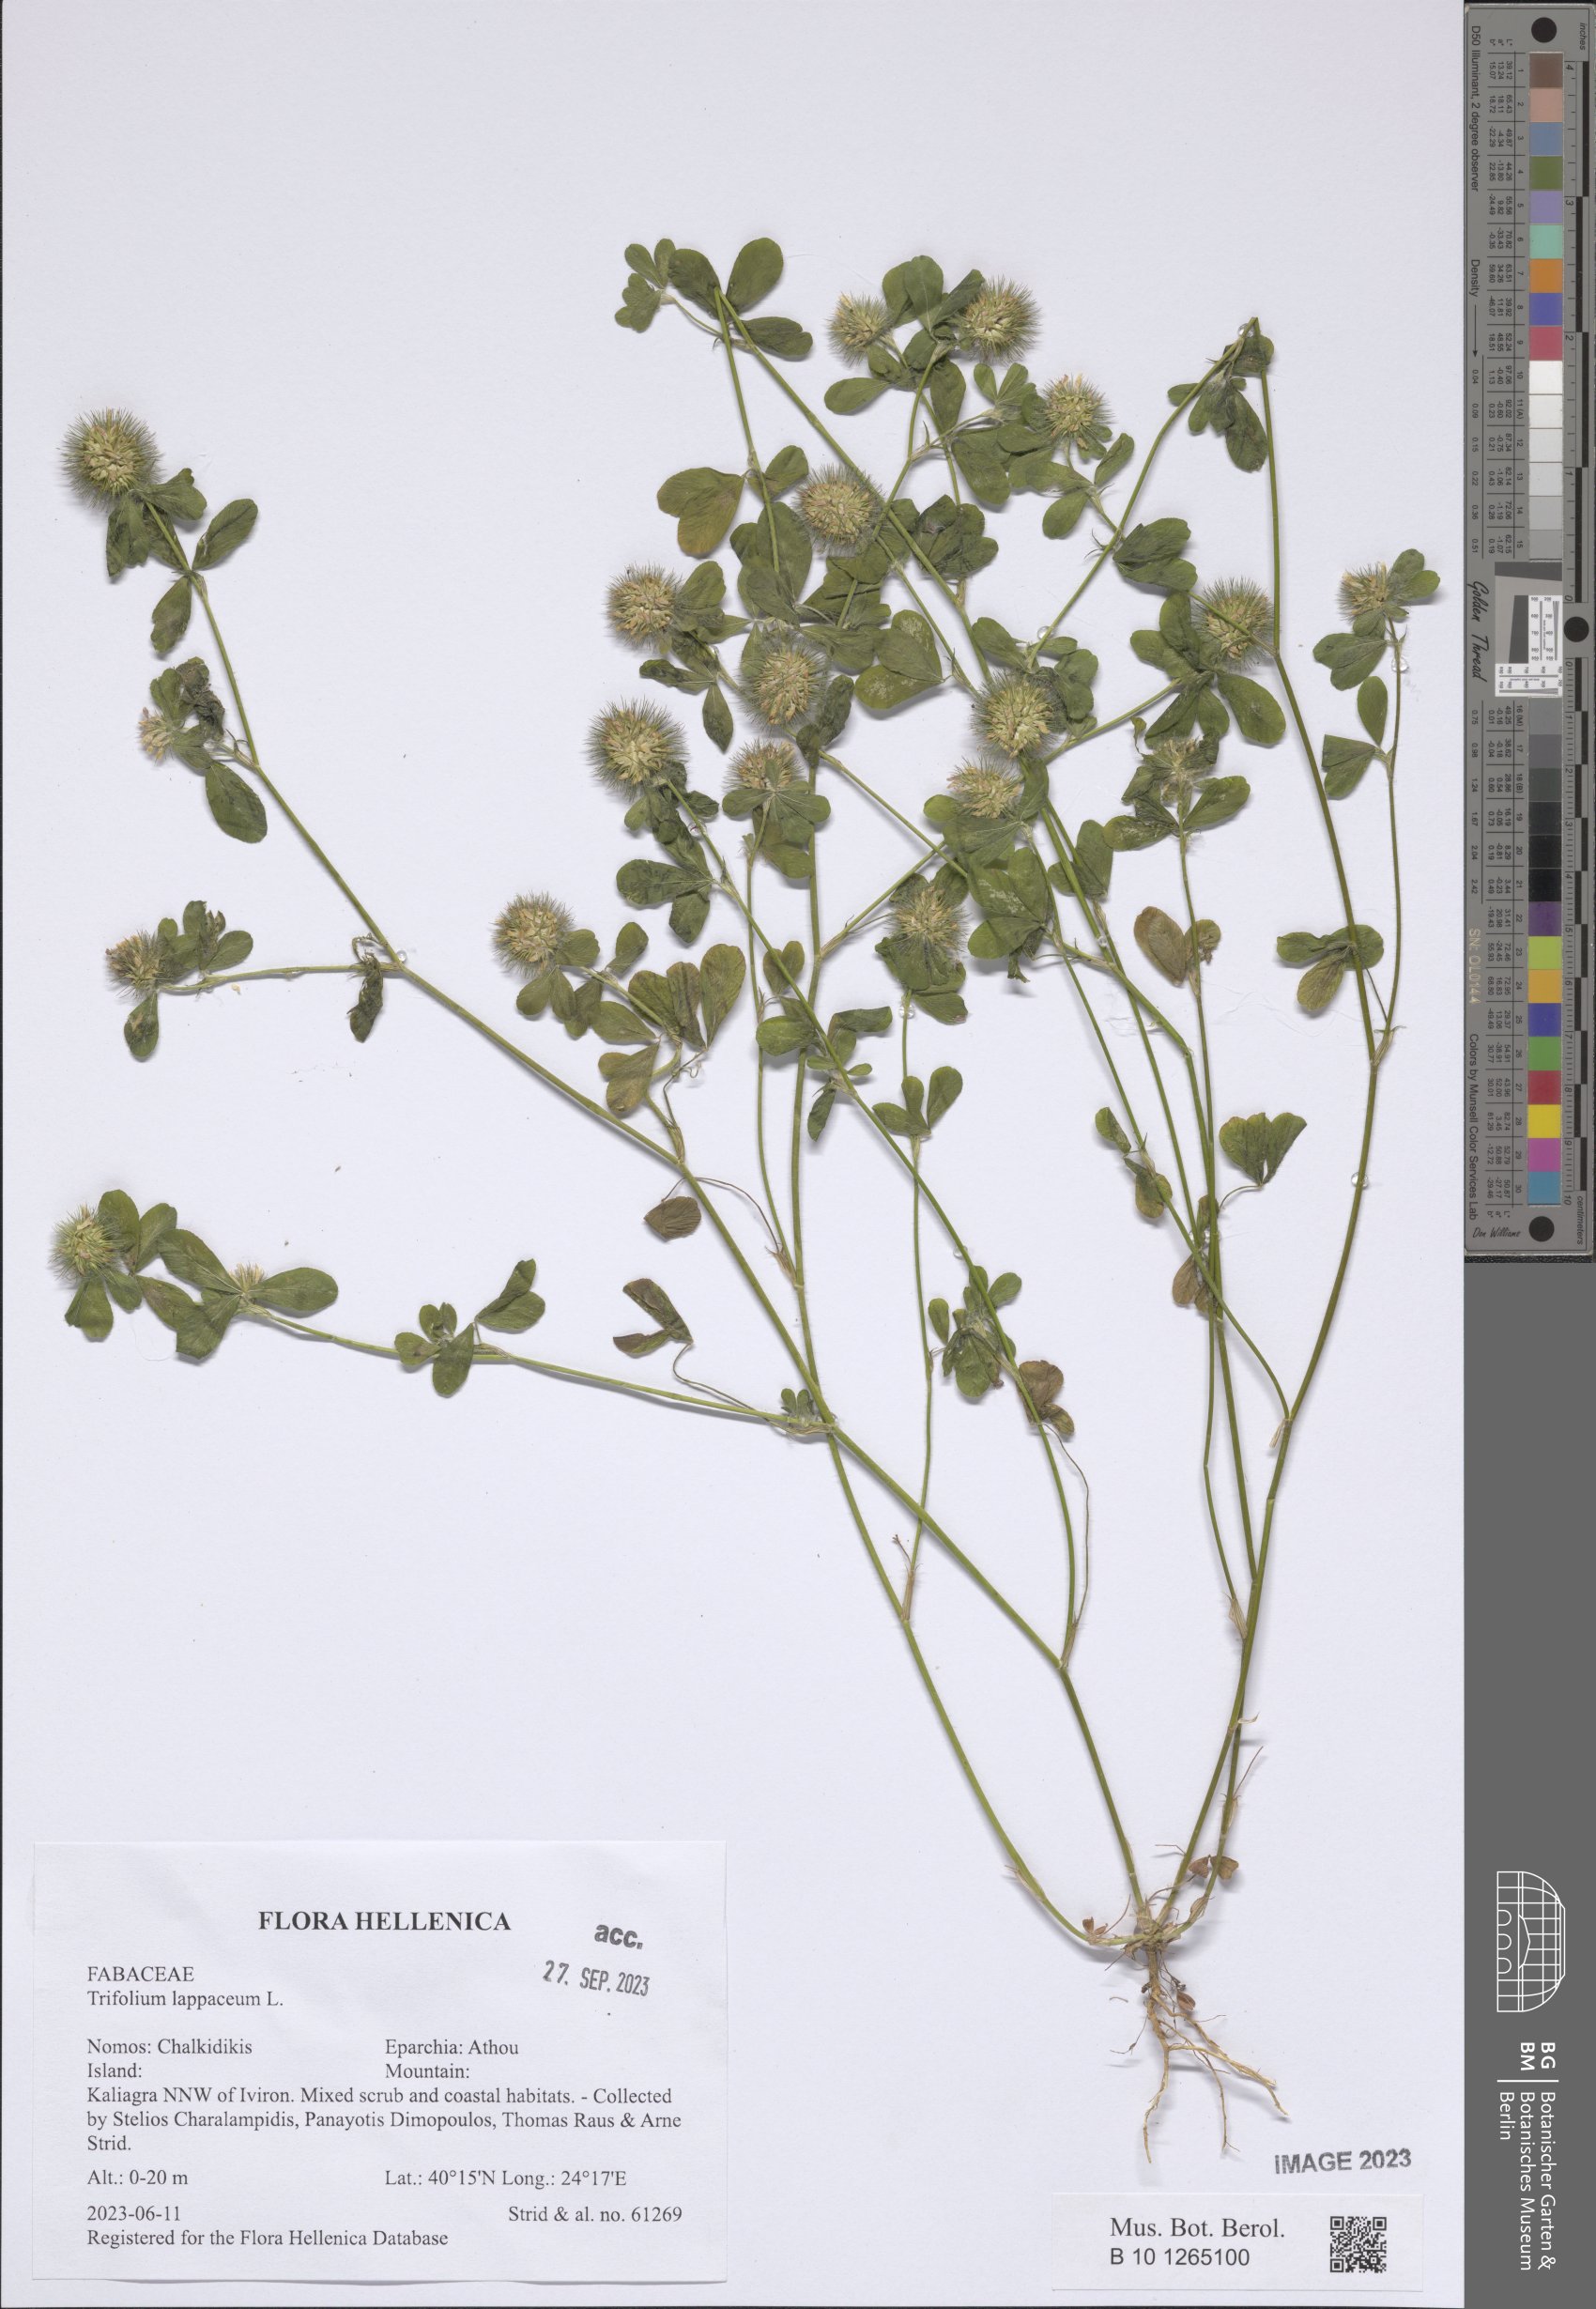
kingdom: Plantae
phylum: Tracheophyta
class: Magnoliopsida
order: Fabales
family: Fabaceae
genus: Trifolium
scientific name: Trifolium lappaceum
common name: Bur clover
